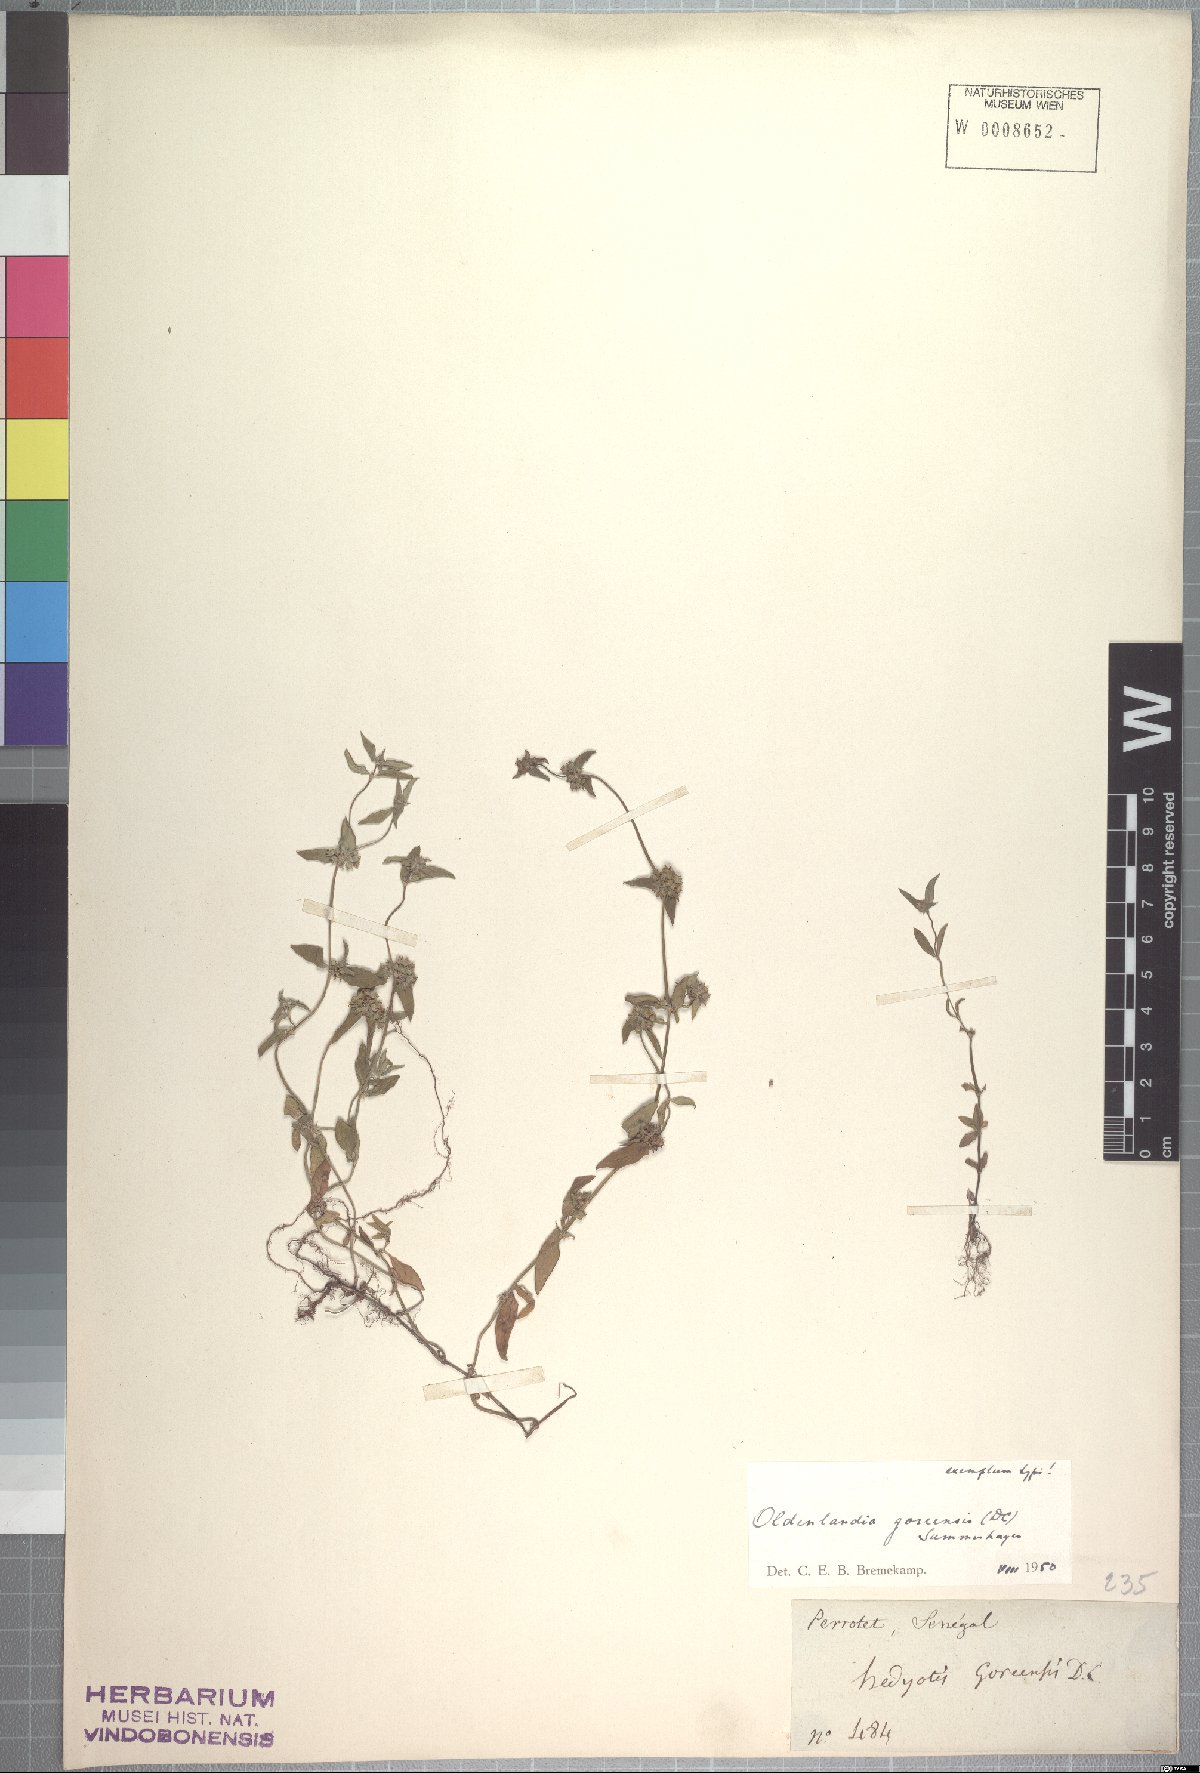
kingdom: Plantae
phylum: Tracheophyta
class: Magnoliopsida
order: Gentianales
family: Rubiaceae
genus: Edrastima
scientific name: Edrastima goreensis
